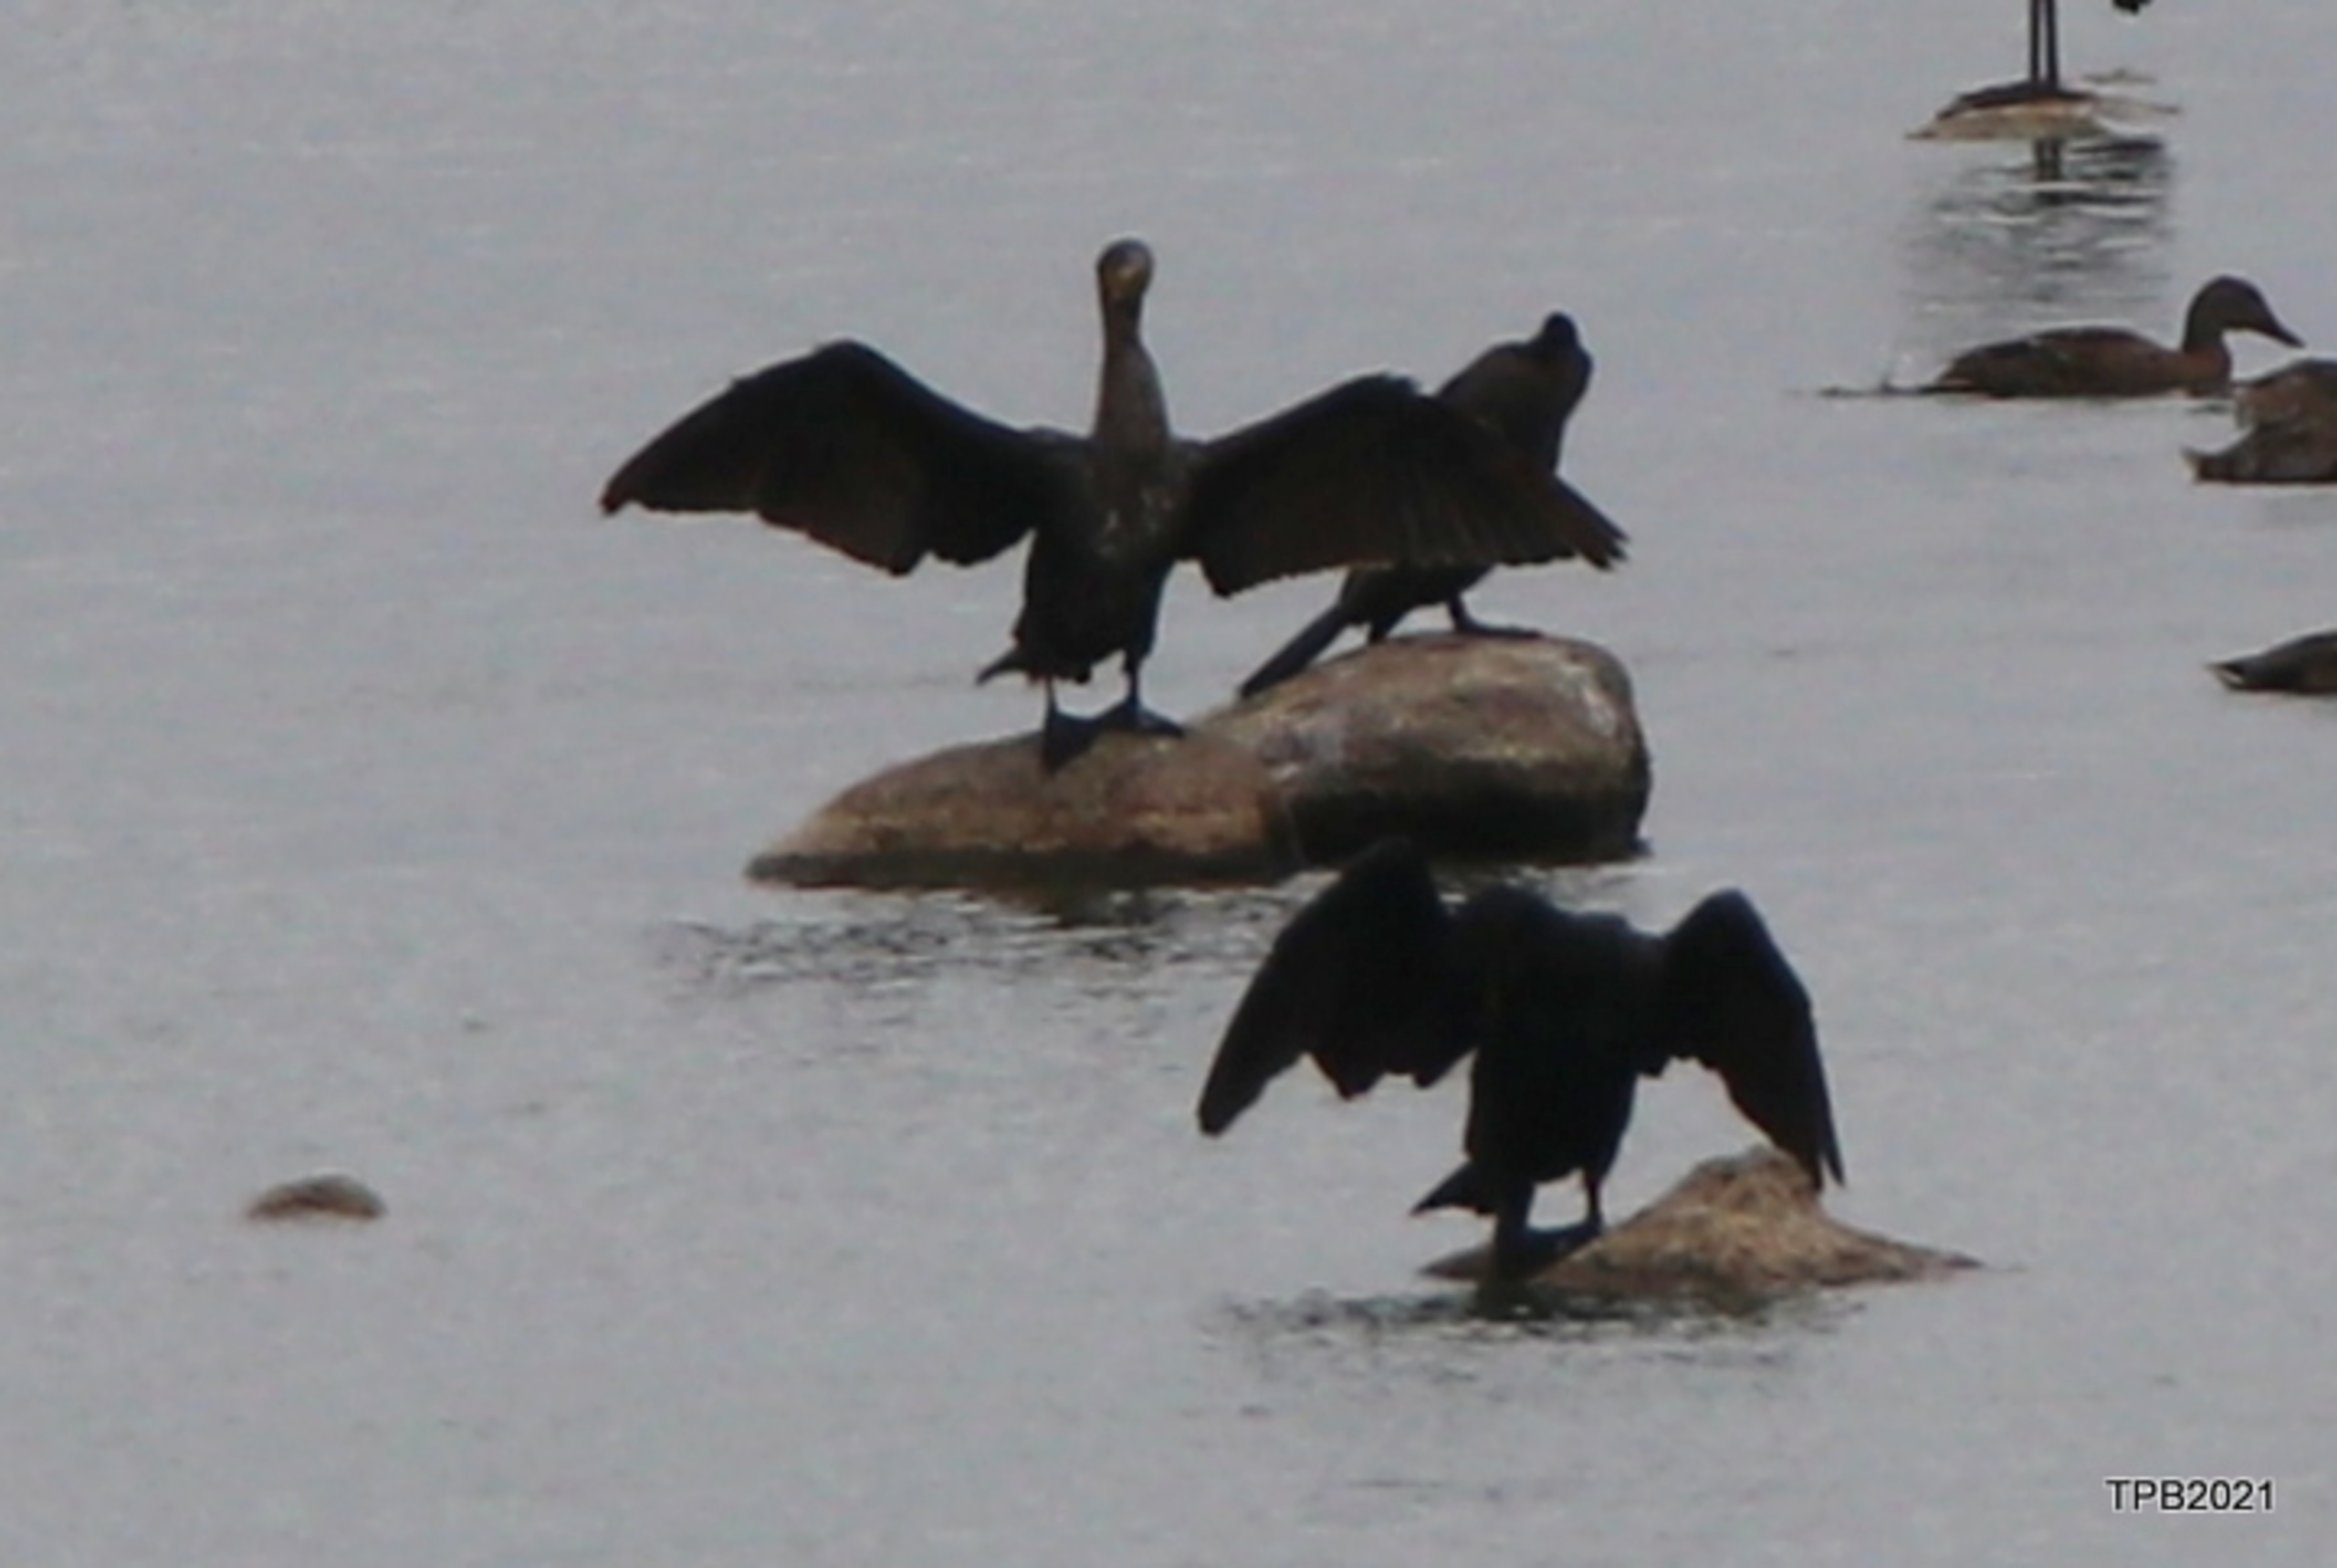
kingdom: Animalia
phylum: Chordata
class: Aves
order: Suliformes
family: Phalacrocoracidae
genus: Phalacrocorax
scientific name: Phalacrocorax carbo
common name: Skarv
